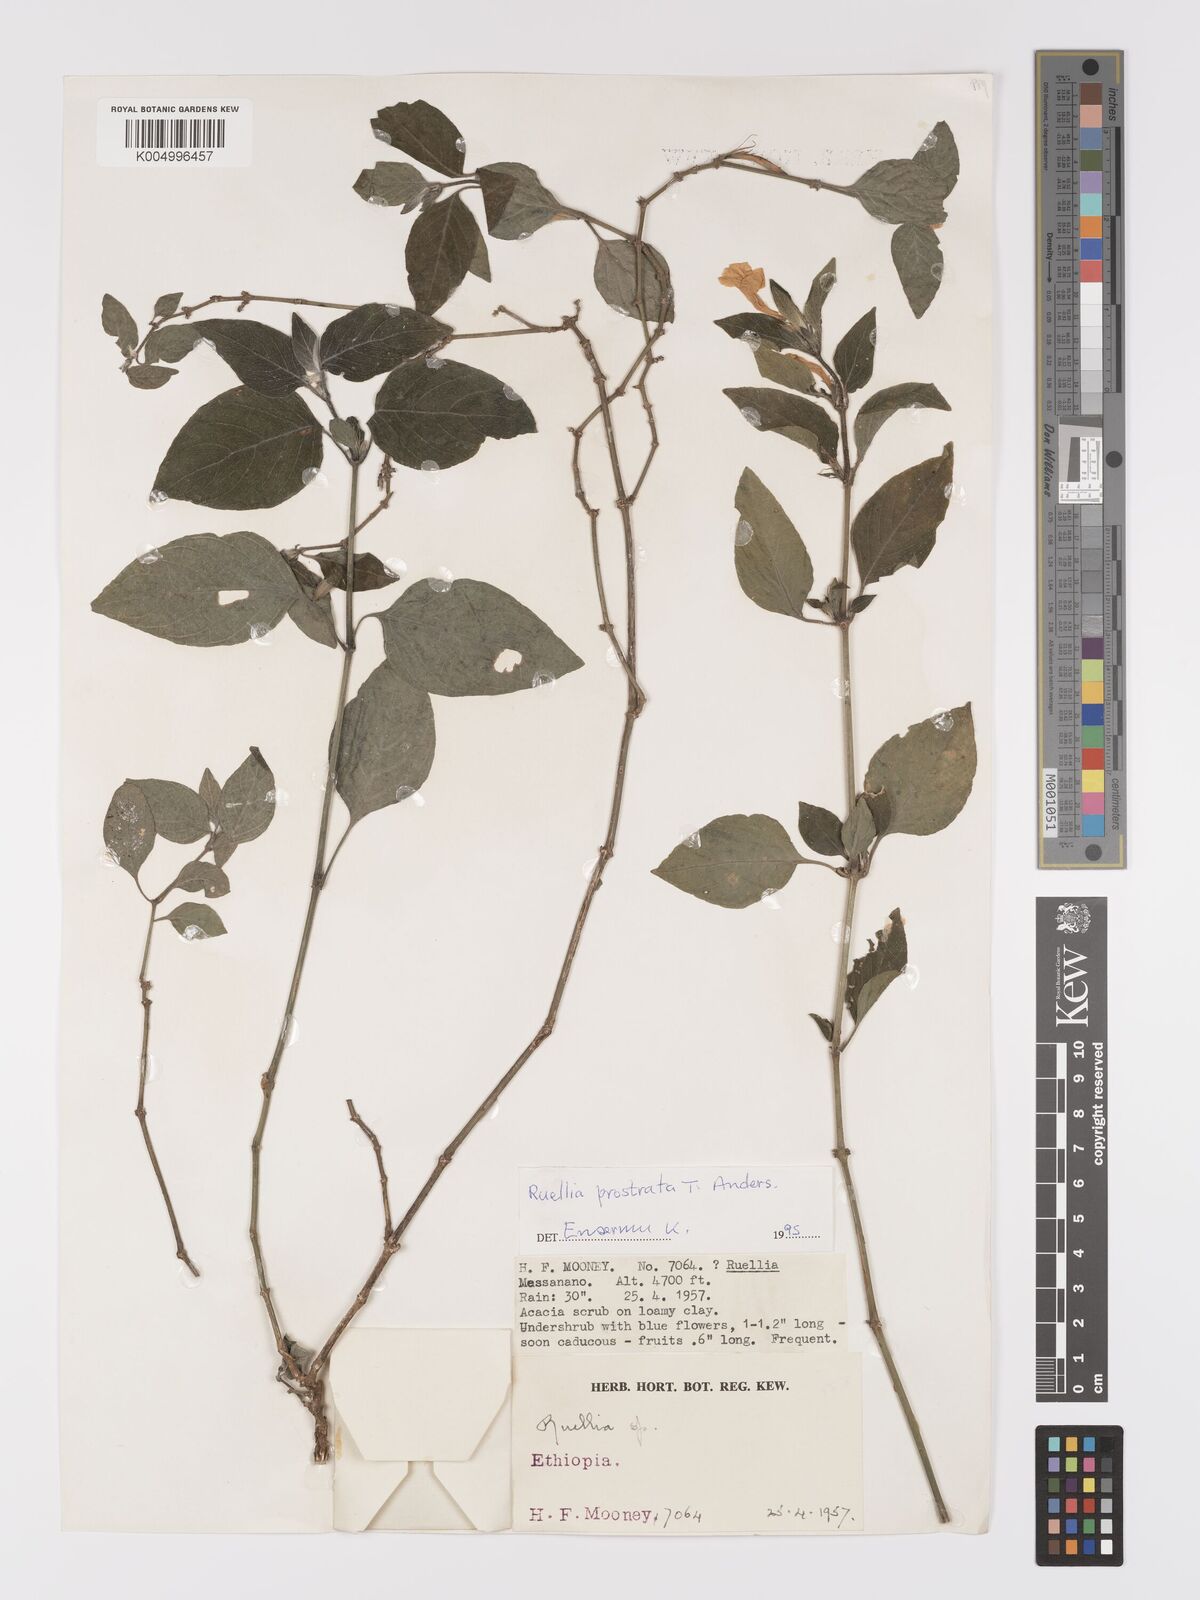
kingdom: Plantae
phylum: Tracheophyta
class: Magnoliopsida
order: Lamiales
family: Acanthaceae
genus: Ruellia
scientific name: Ruellia
